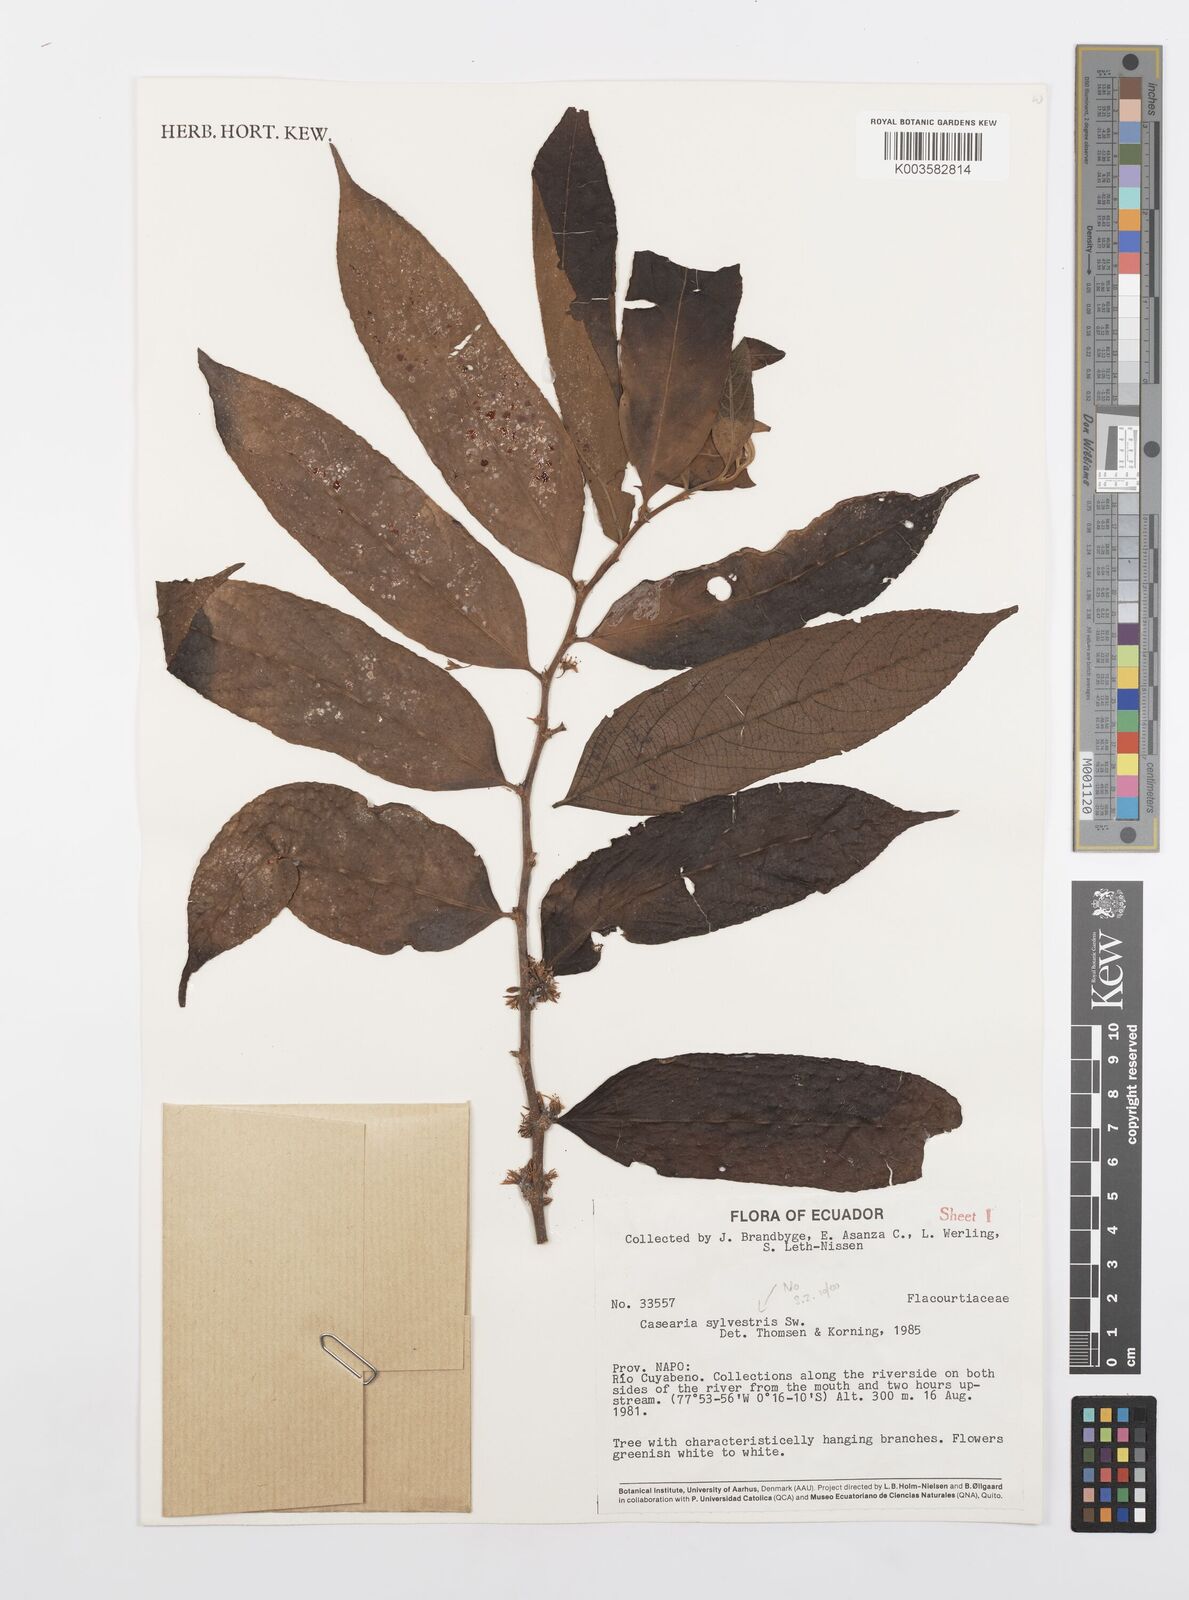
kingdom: Plantae
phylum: Tracheophyta
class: Magnoliopsida
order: Malpighiales
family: Salicaceae
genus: Casearia
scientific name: Casearia sylvestris
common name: Wild sage
